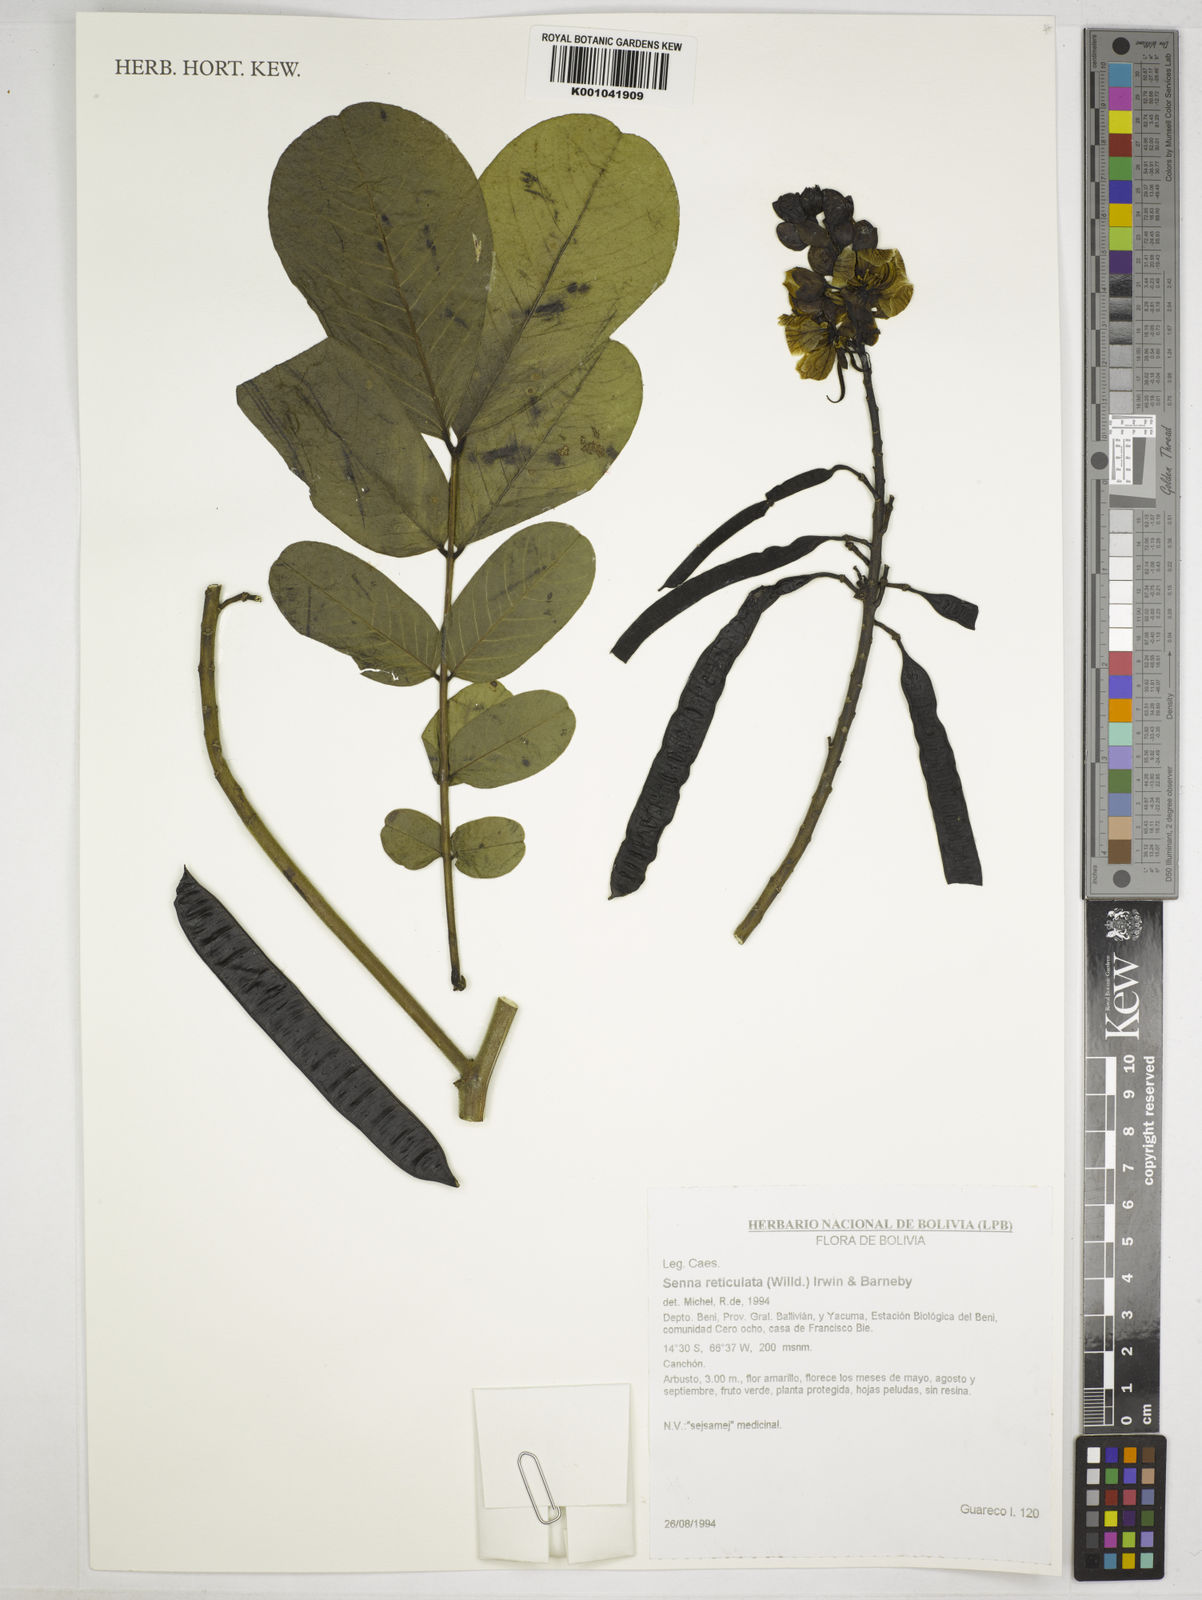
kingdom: Plantae
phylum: Tracheophyta
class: Magnoliopsida
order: Fabales
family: Fabaceae
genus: Senna
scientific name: Senna reticulata
